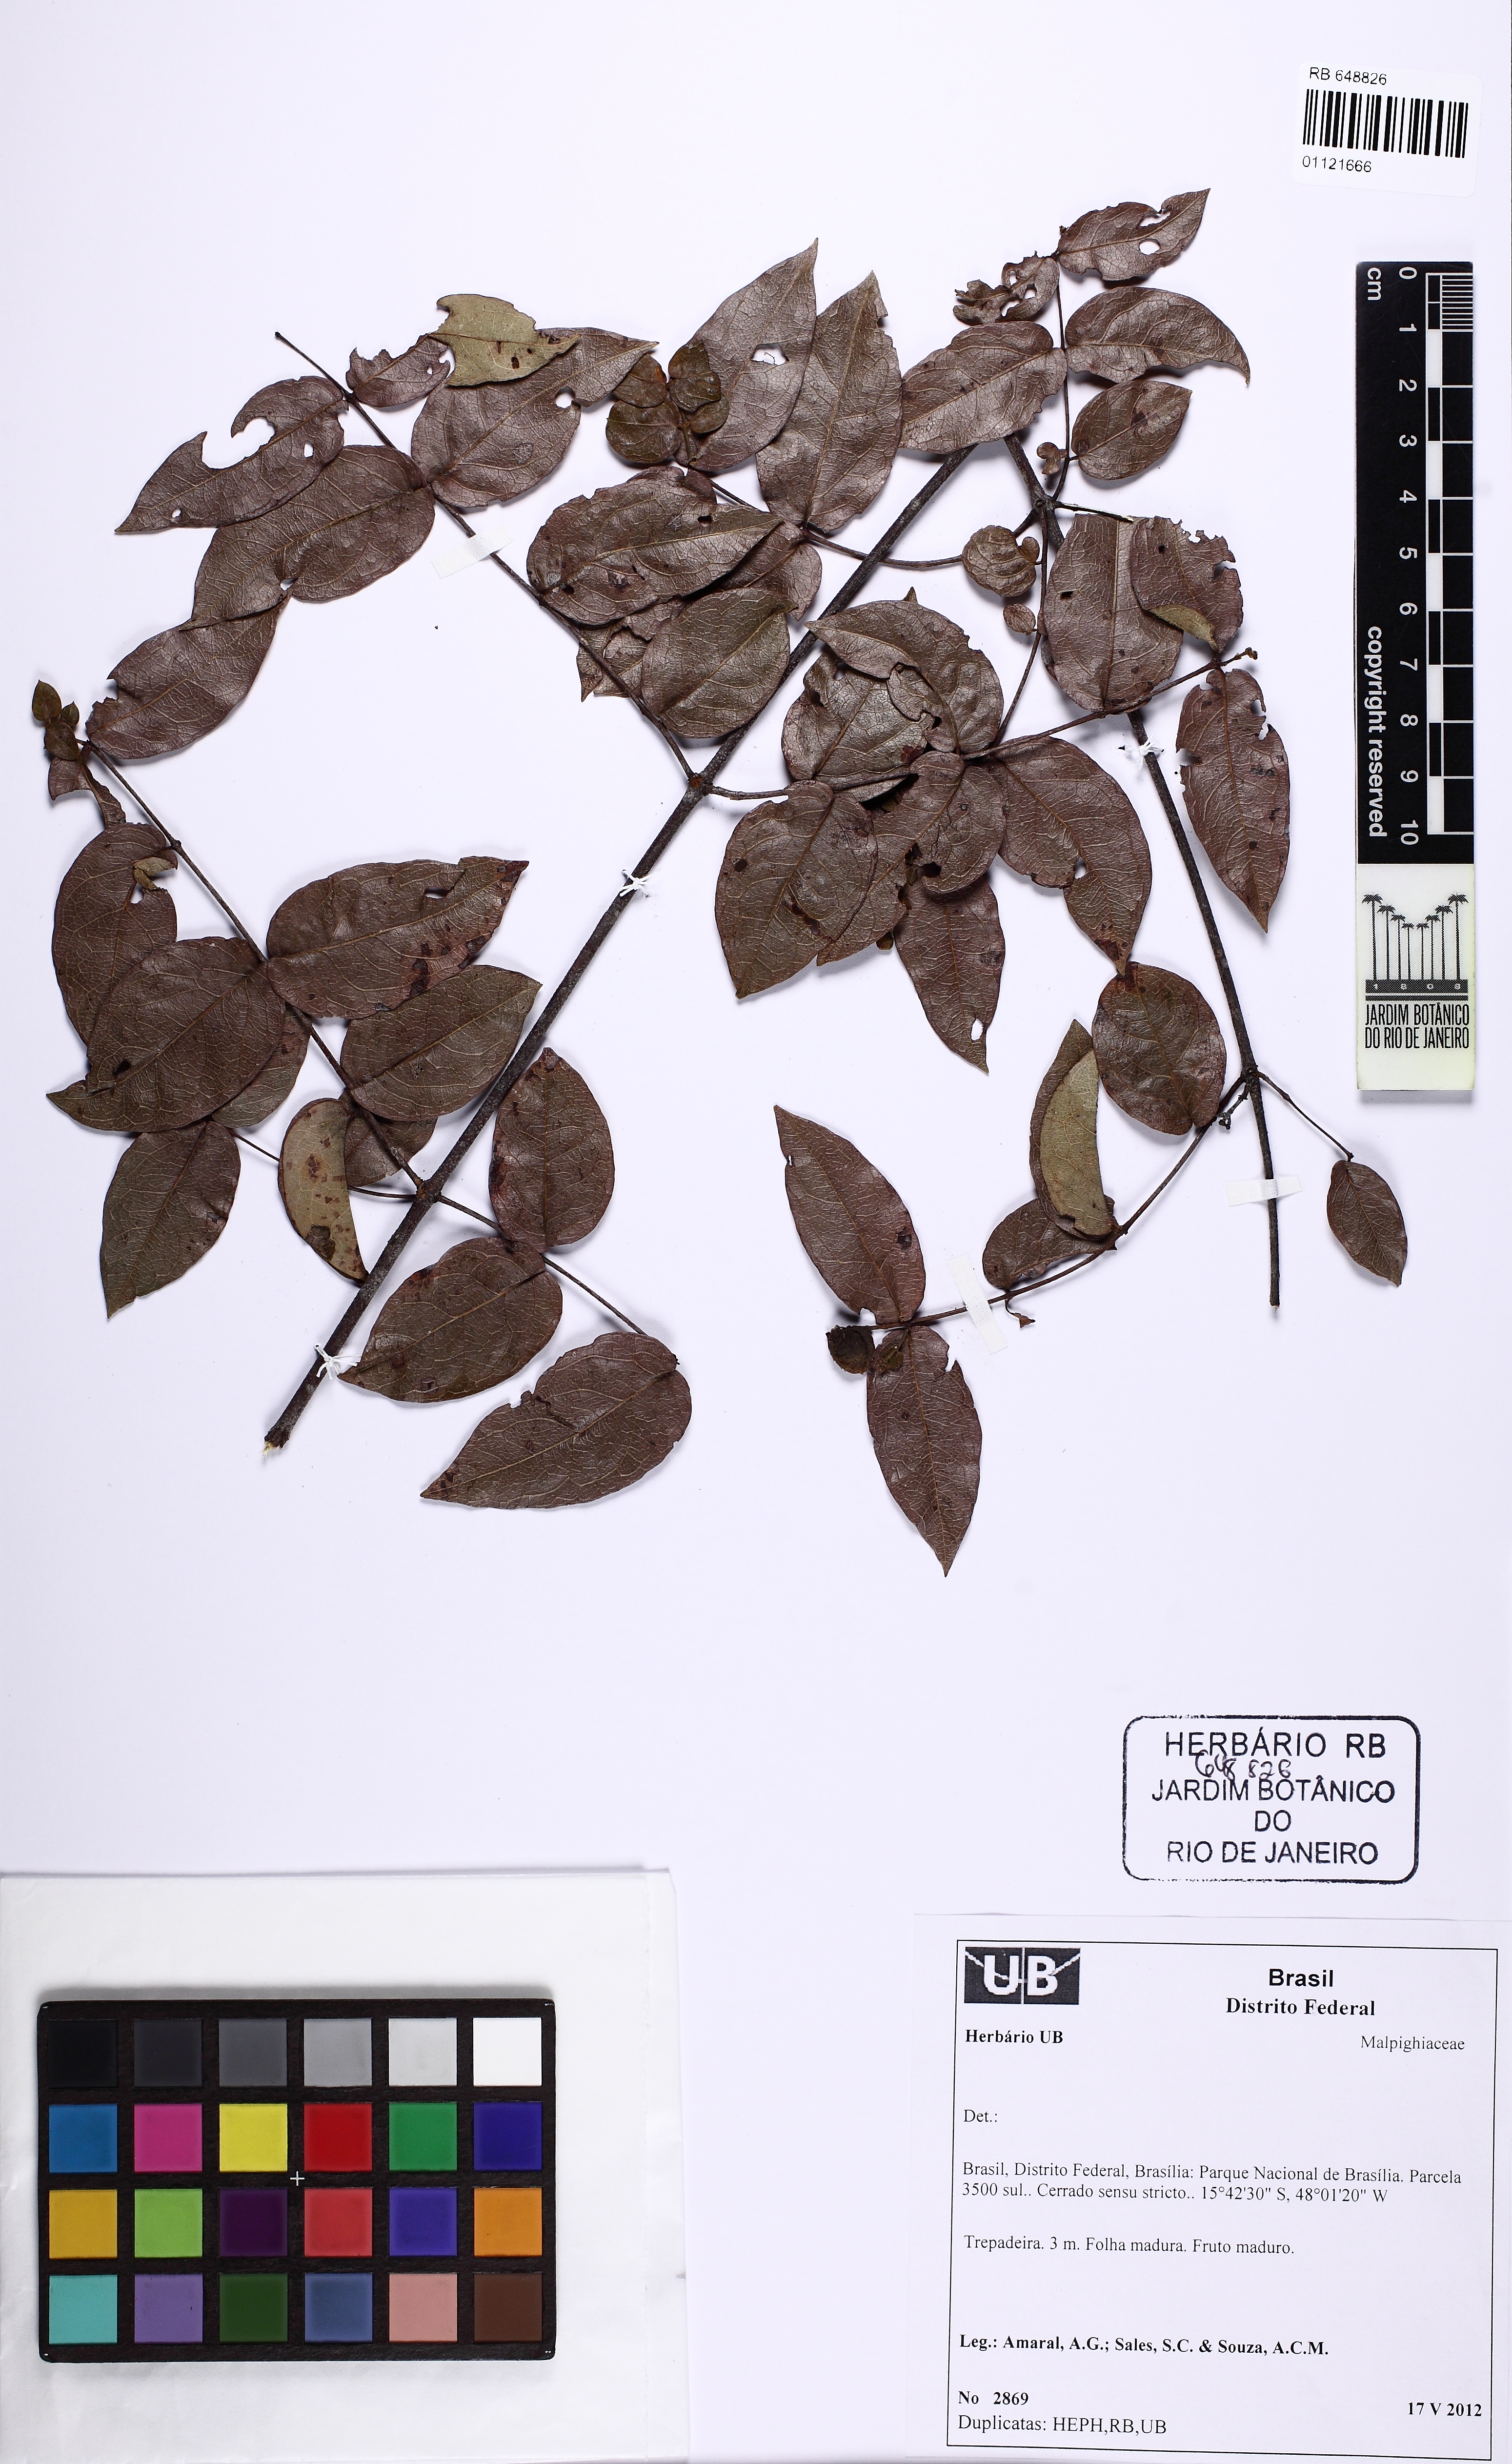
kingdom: Plantae
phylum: Tracheophyta
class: Magnoliopsida
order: Malpighiales
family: Malpighiaceae
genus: Banisteriopsis
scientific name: Banisteriopsis stellaris
